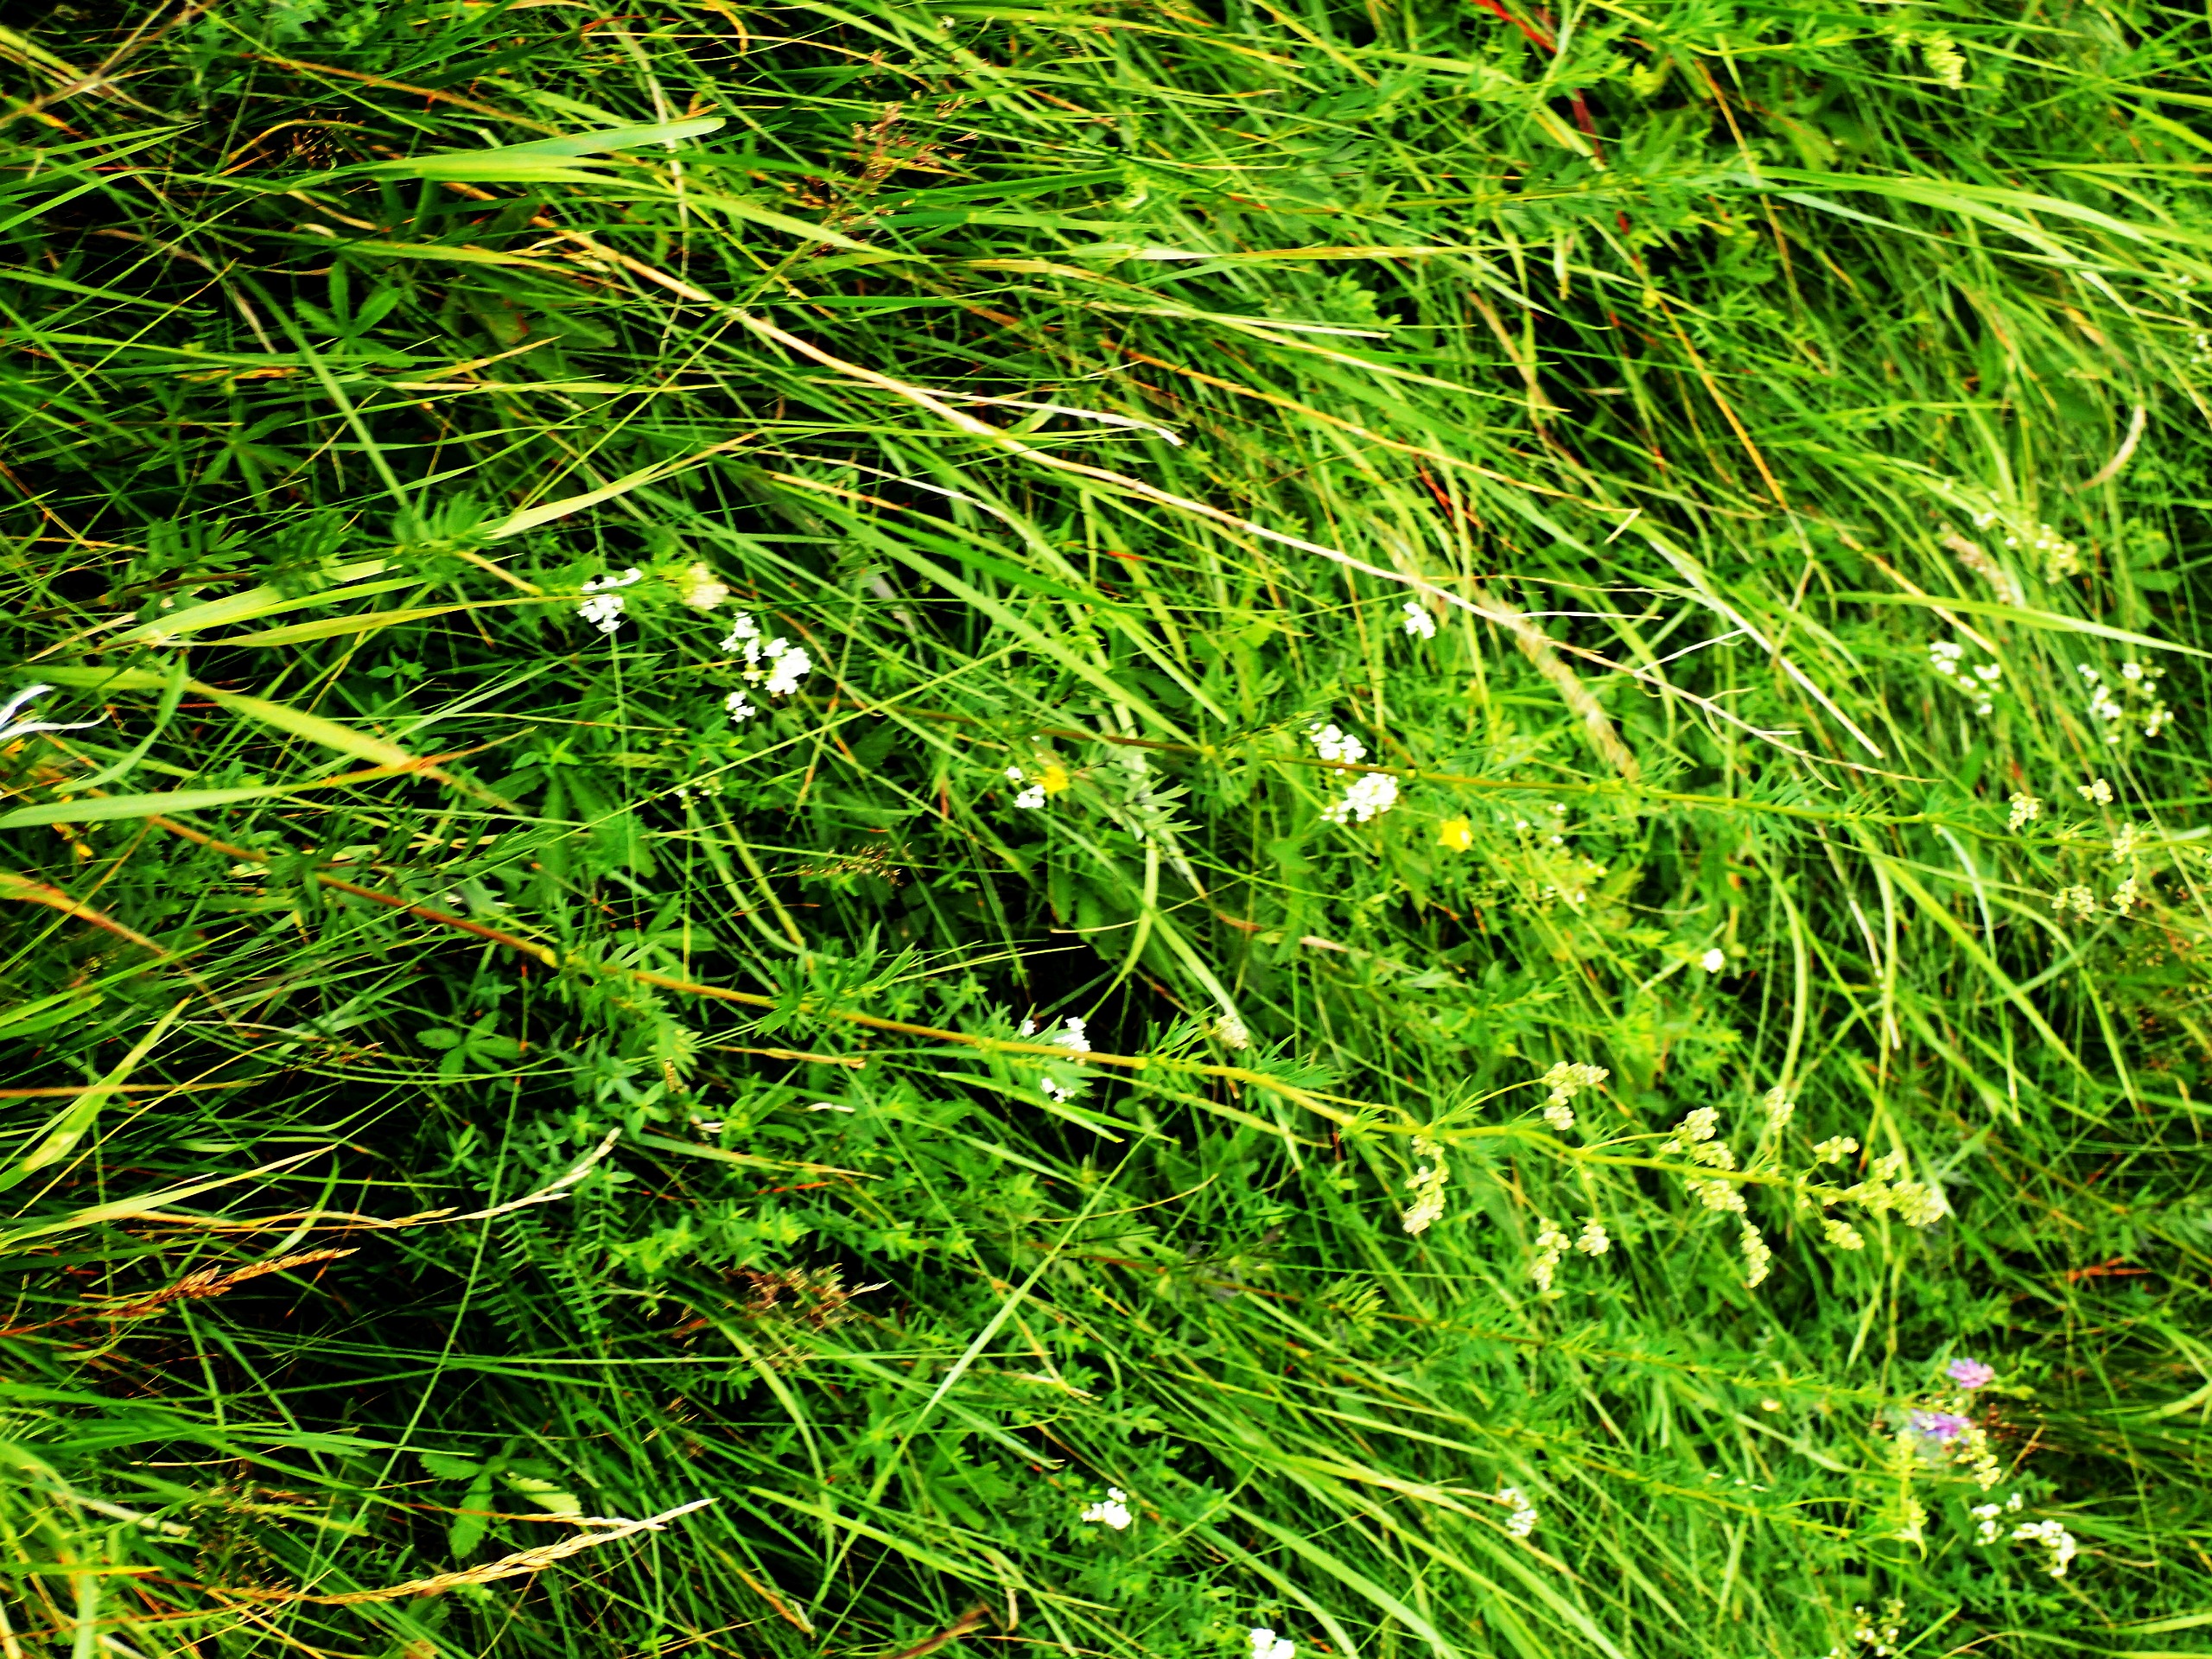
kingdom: Plantae
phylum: Tracheophyta
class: Magnoliopsida
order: Ranunculales
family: Ranunculaceae
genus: Thalictrum
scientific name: Thalictrum simplex
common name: Rank frøstjerne
